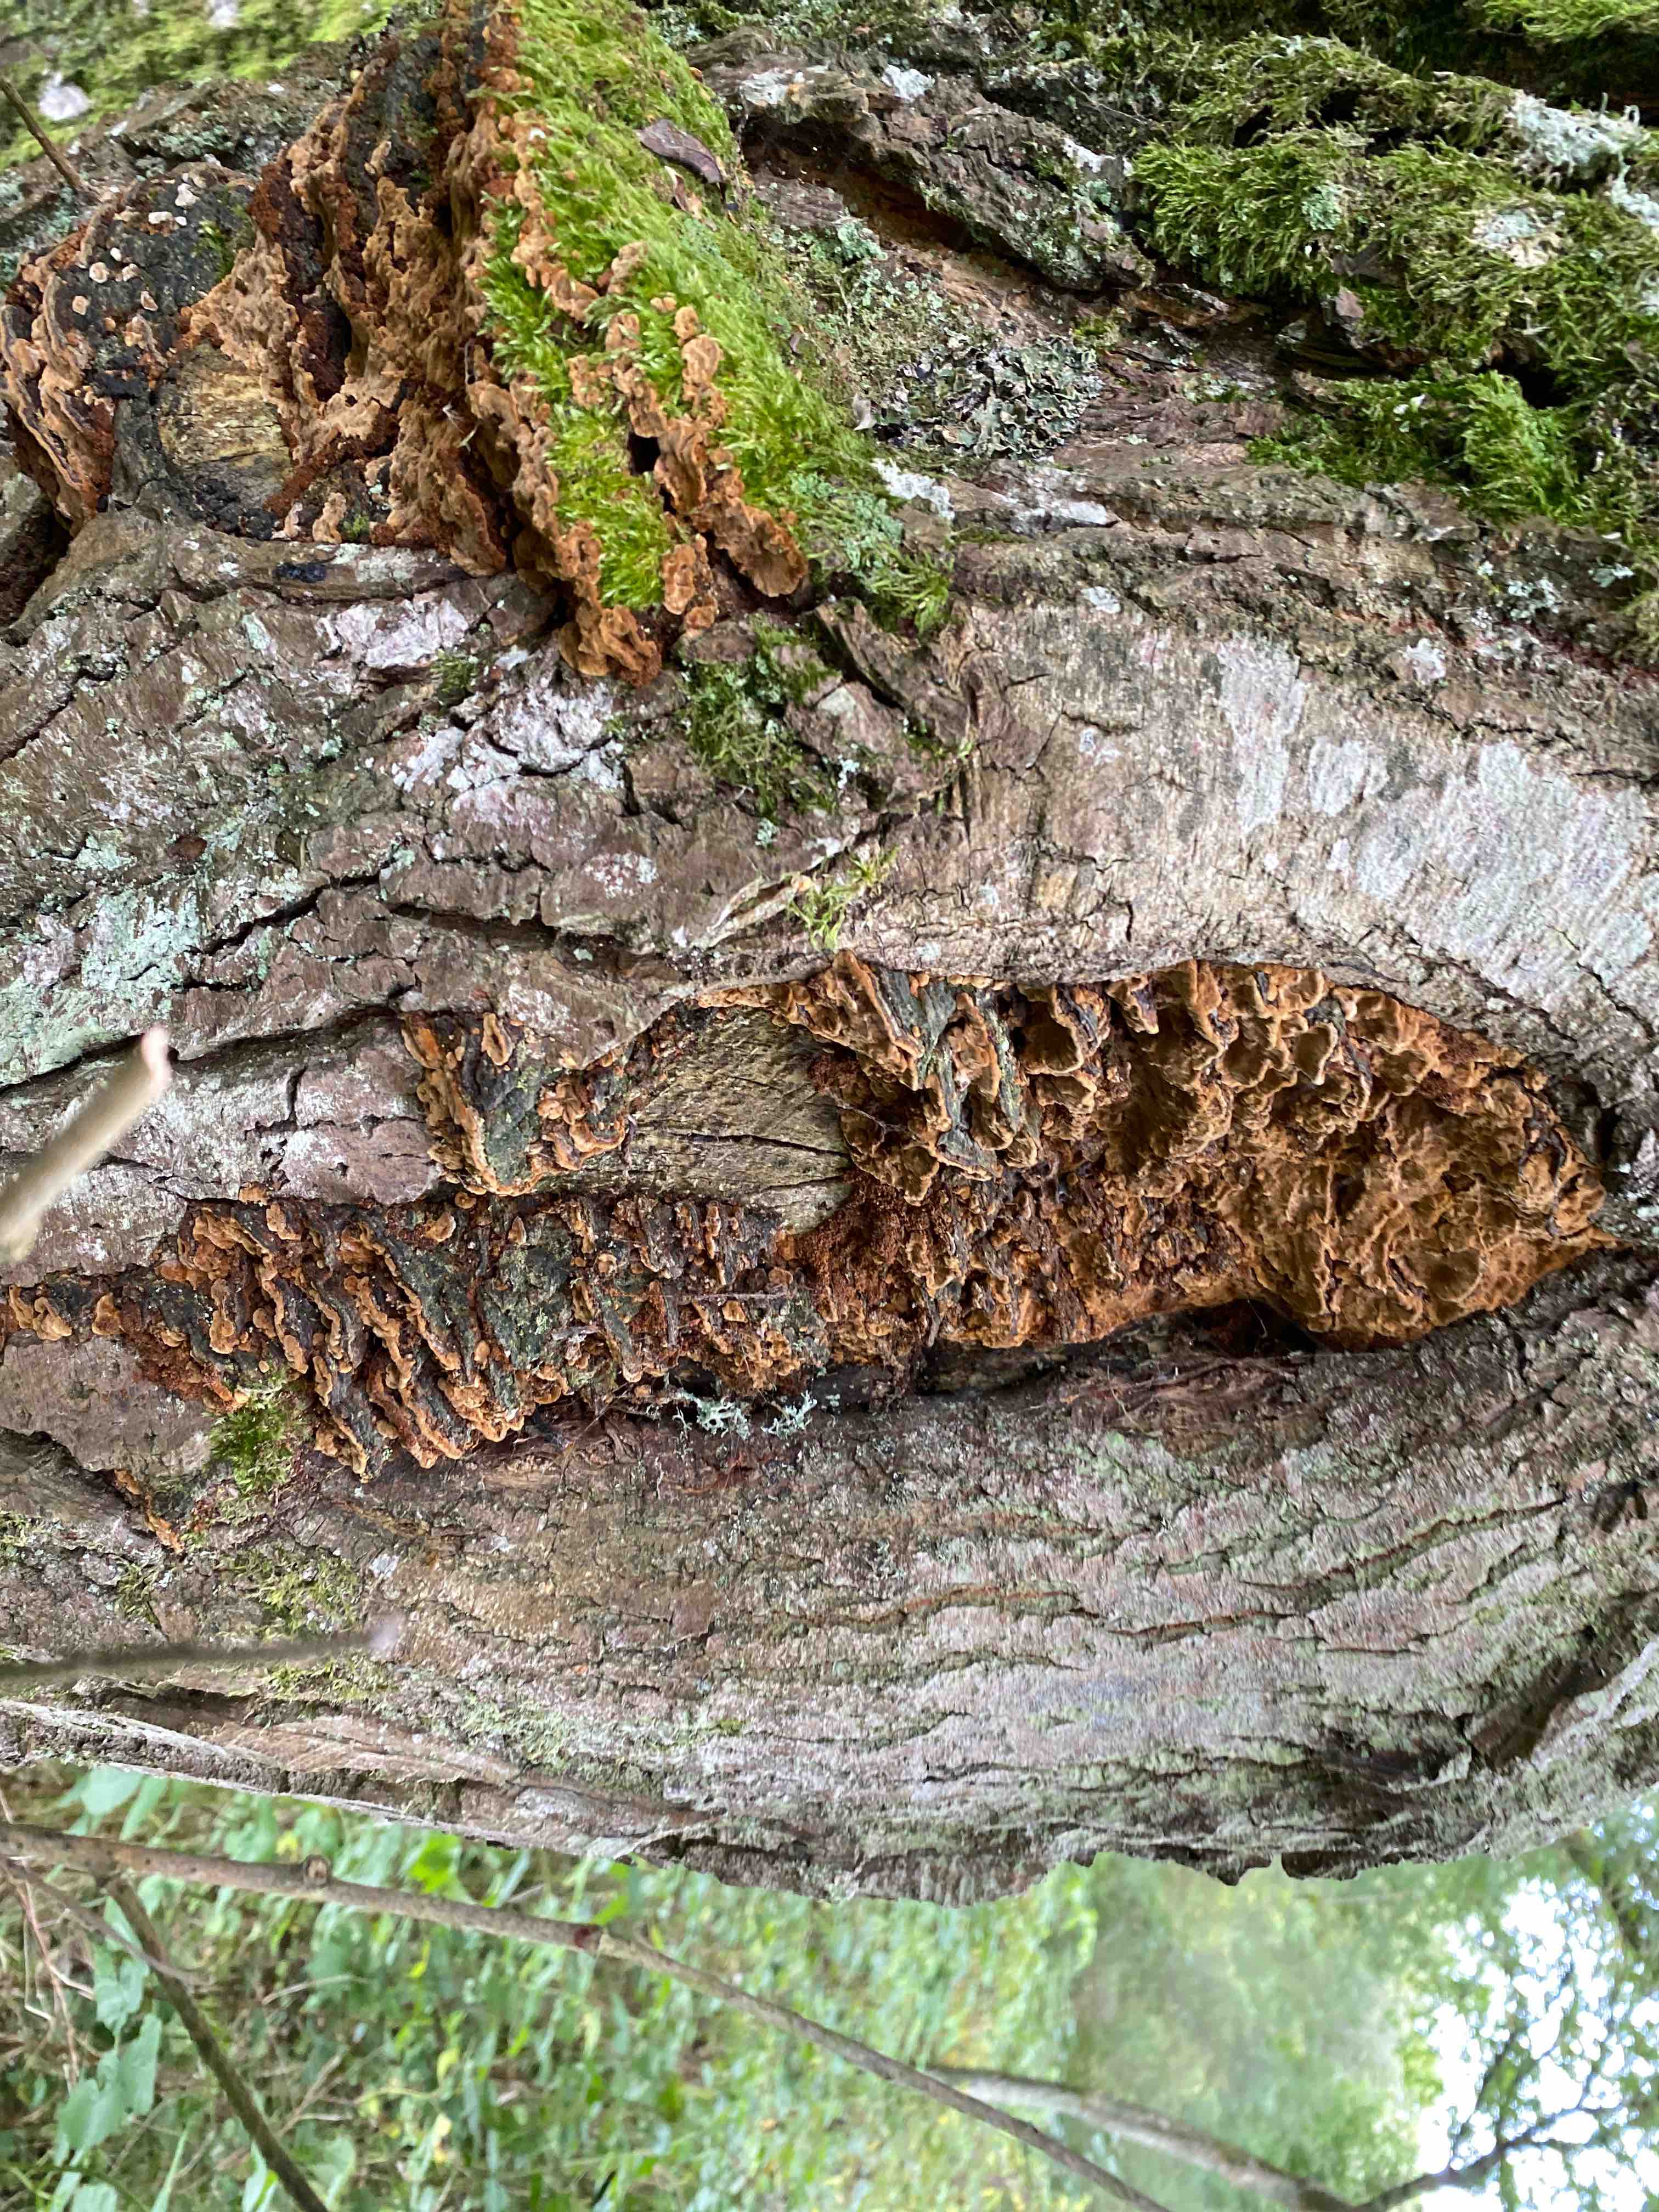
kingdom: Fungi
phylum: Basidiomycota
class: Agaricomycetes
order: Hymenochaetales
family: Hymenochaetaceae
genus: Phellinopsis
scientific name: Phellinopsis conchata
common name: pile-ildporesvamp
